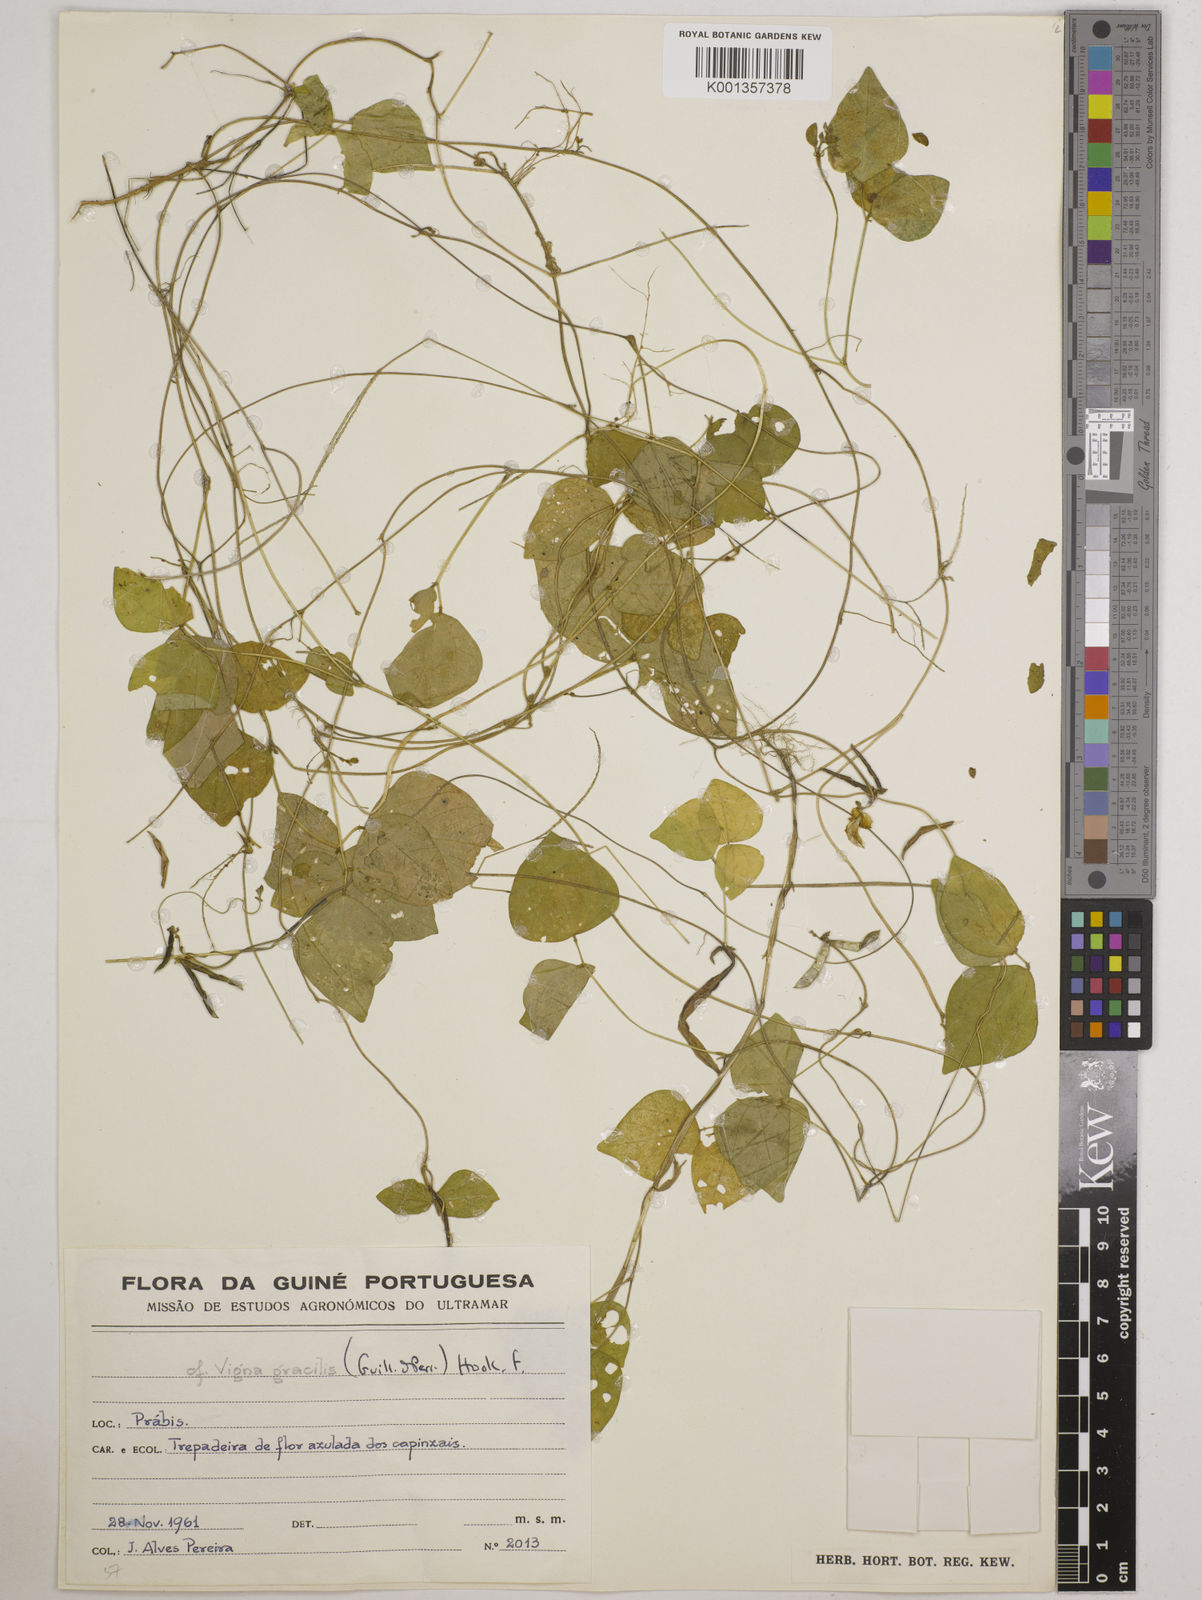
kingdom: Plantae
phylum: Tracheophyta
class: Magnoliopsida
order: Fabales
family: Fabaceae
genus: Vigna
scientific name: Vigna gracilis
